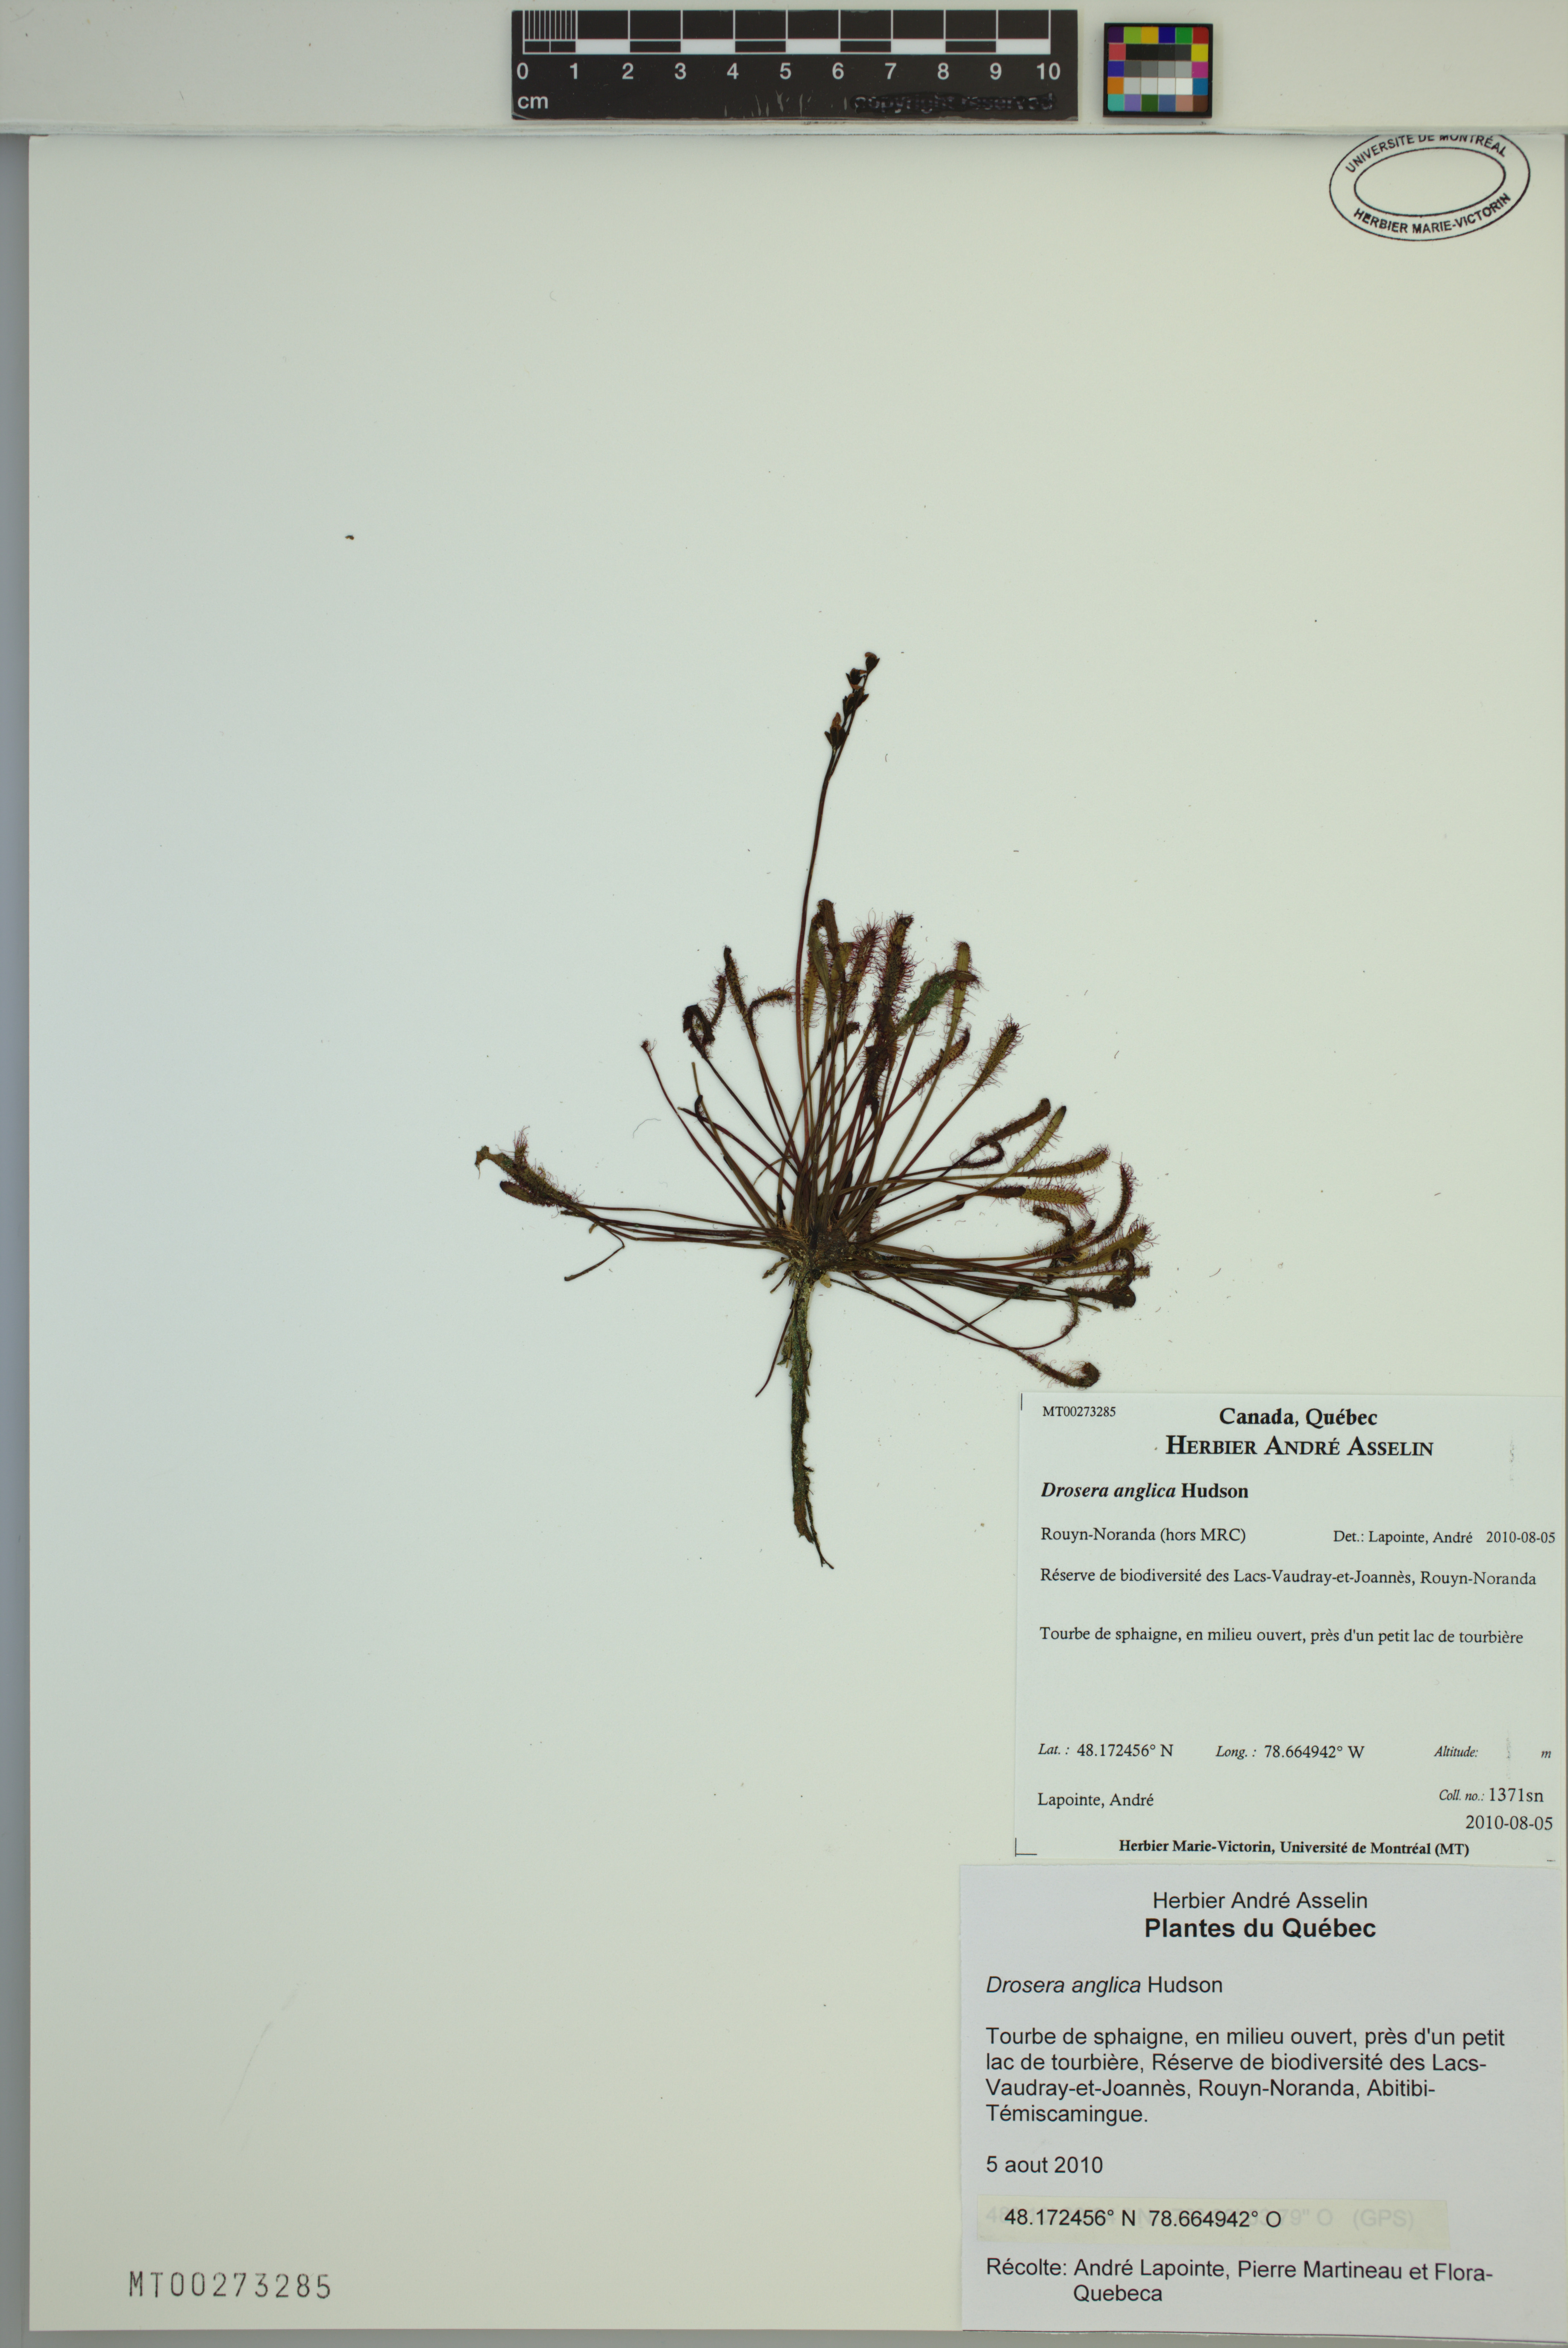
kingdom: Plantae
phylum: Tracheophyta
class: Magnoliopsida
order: Caryophyllales
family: Droseraceae
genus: Drosera
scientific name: Drosera anglica
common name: Great sundew
